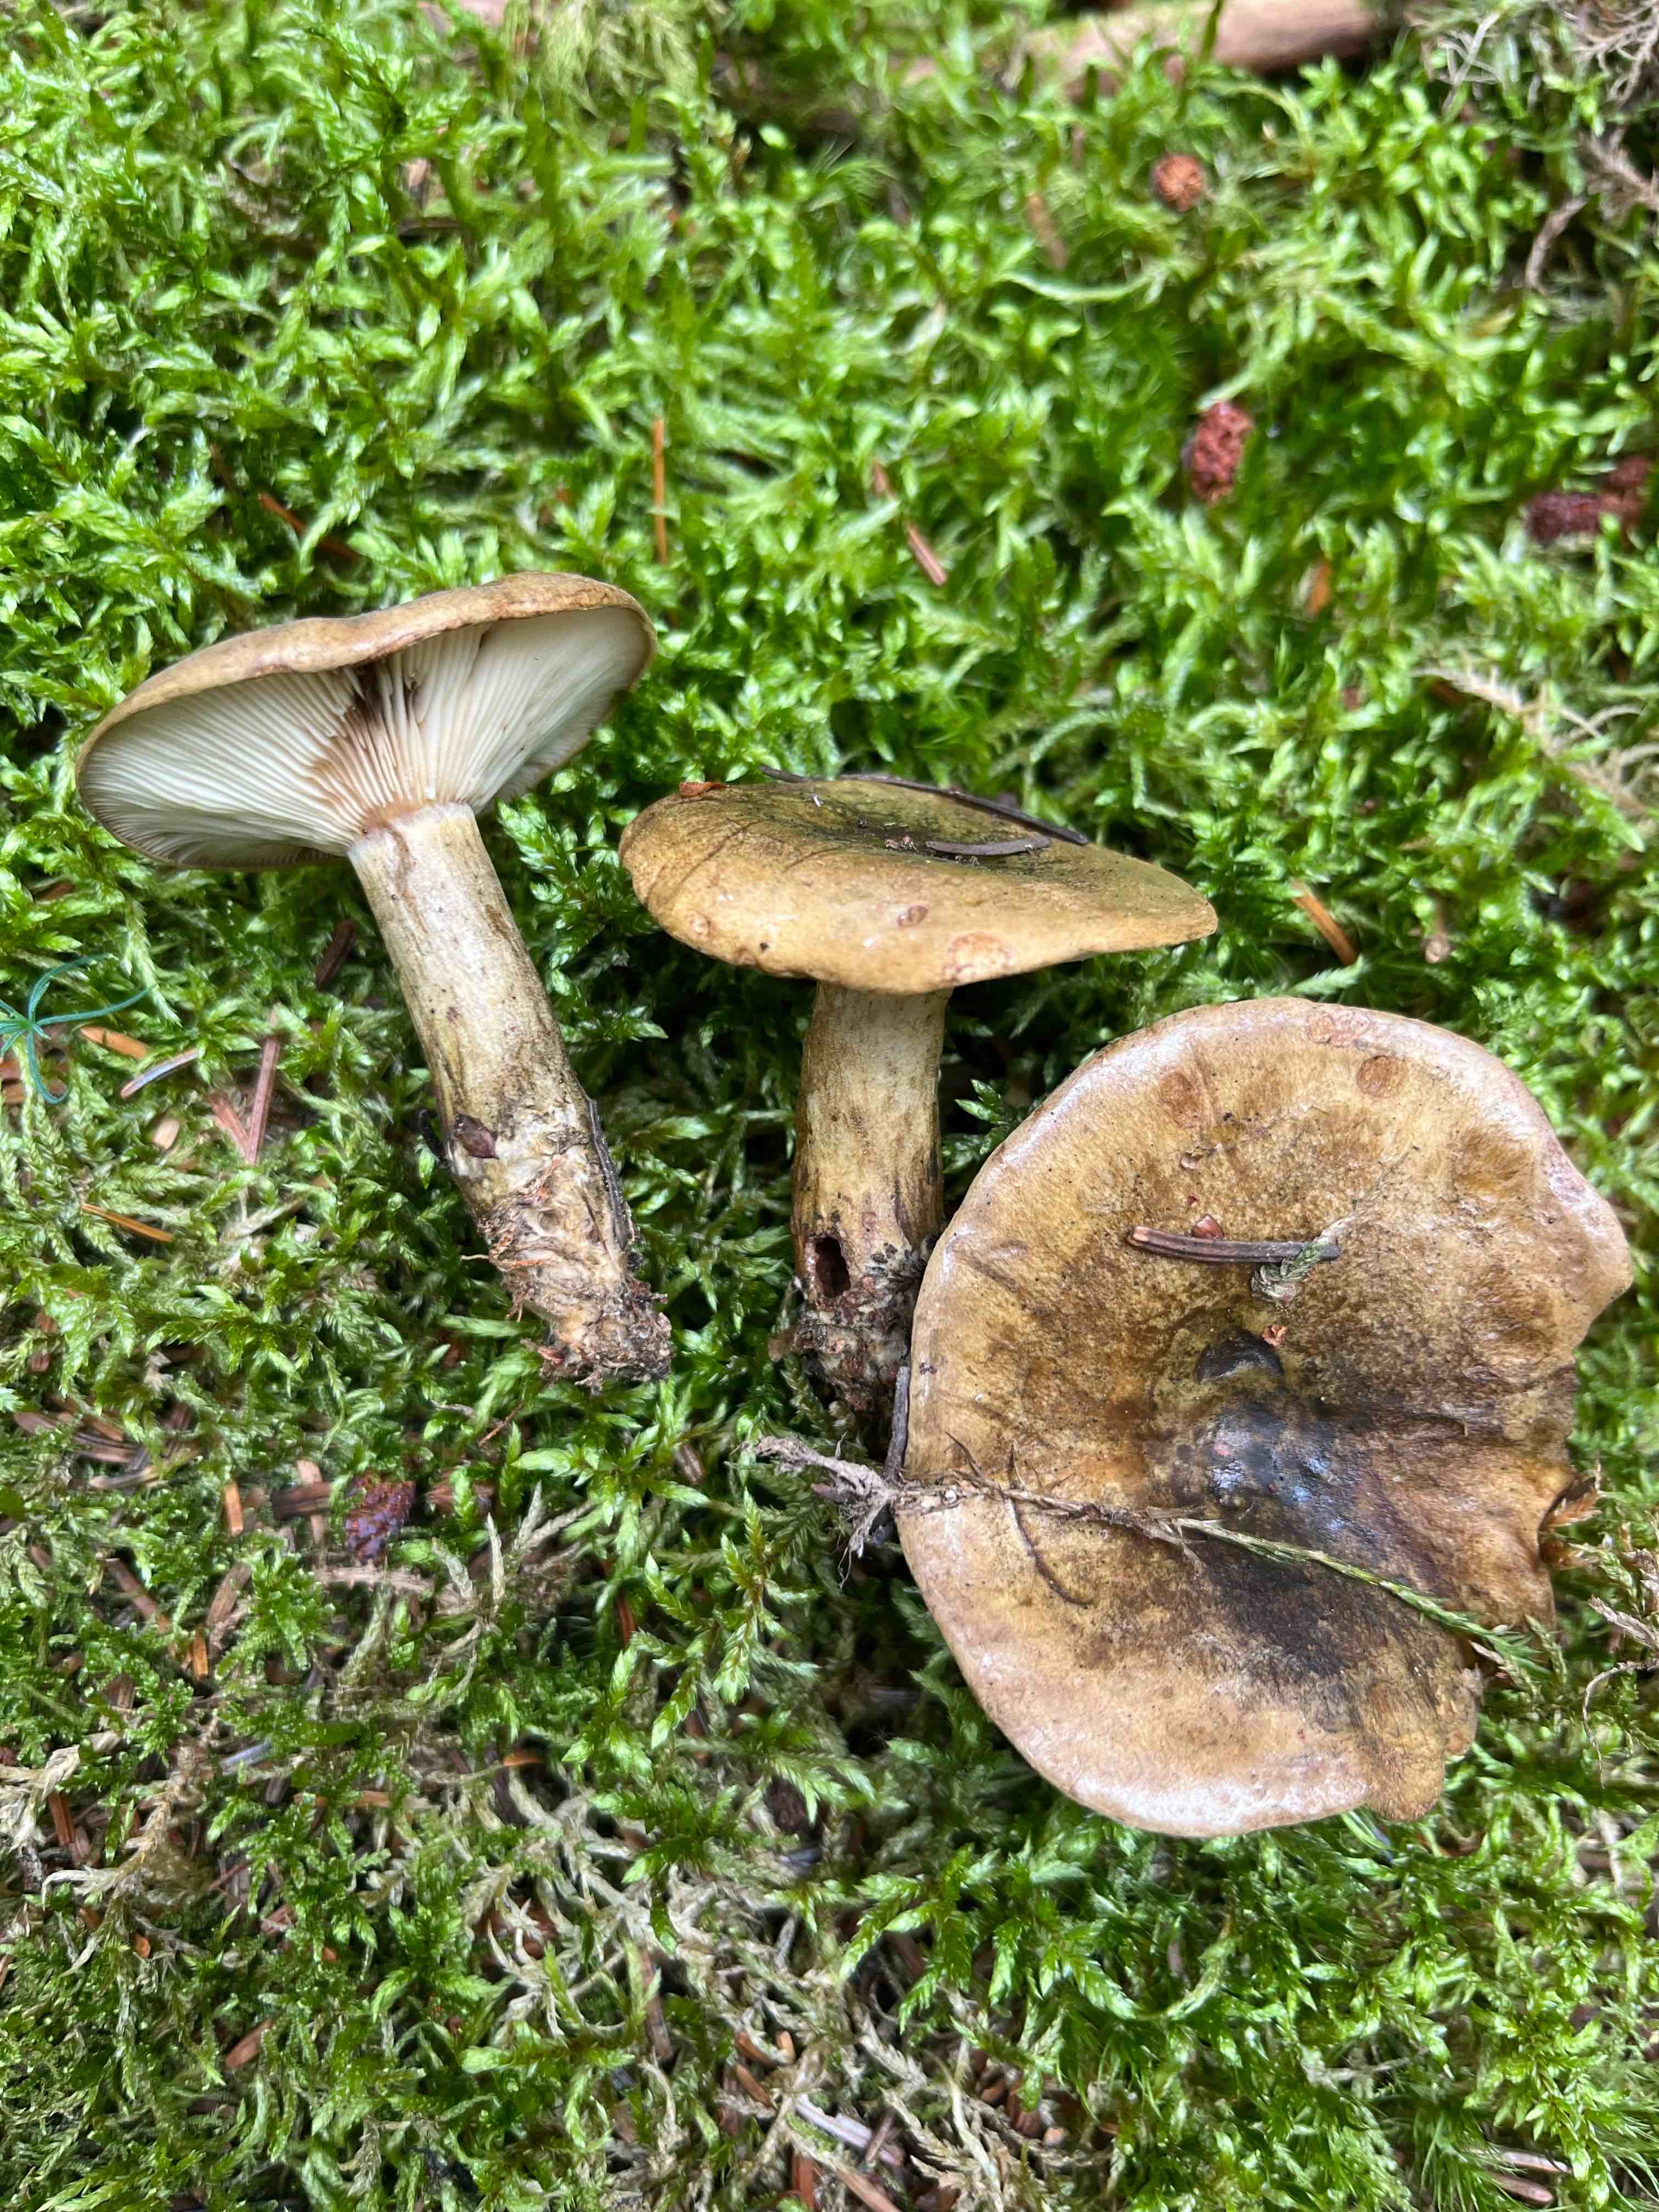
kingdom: Fungi
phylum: Basidiomycota
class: Agaricomycetes
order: Russulales
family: Russulaceae
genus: Lactarius
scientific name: Lactarius necator
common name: manddraber-mælkehat
